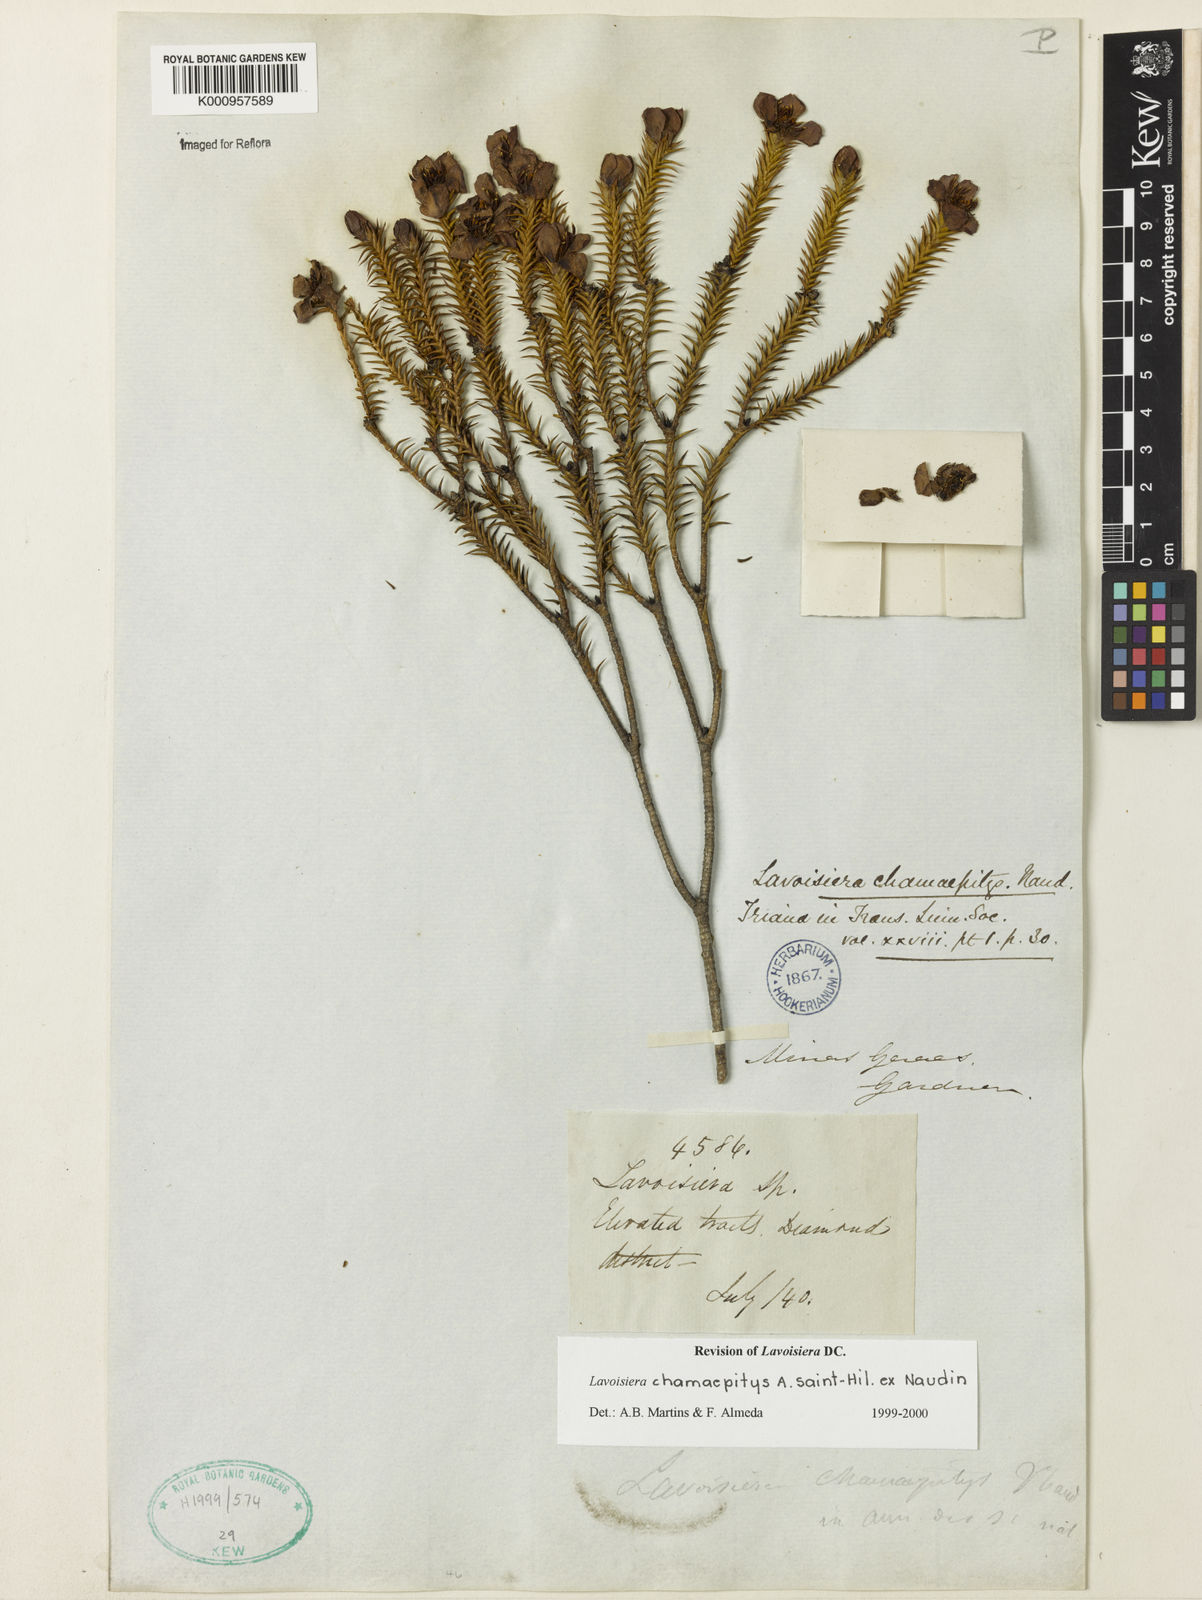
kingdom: Plantae
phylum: Tracheophyta
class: Magnoliopsida
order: Myrtales
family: Melastomataceae
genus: Microlicia
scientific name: Microlicia hilairei
